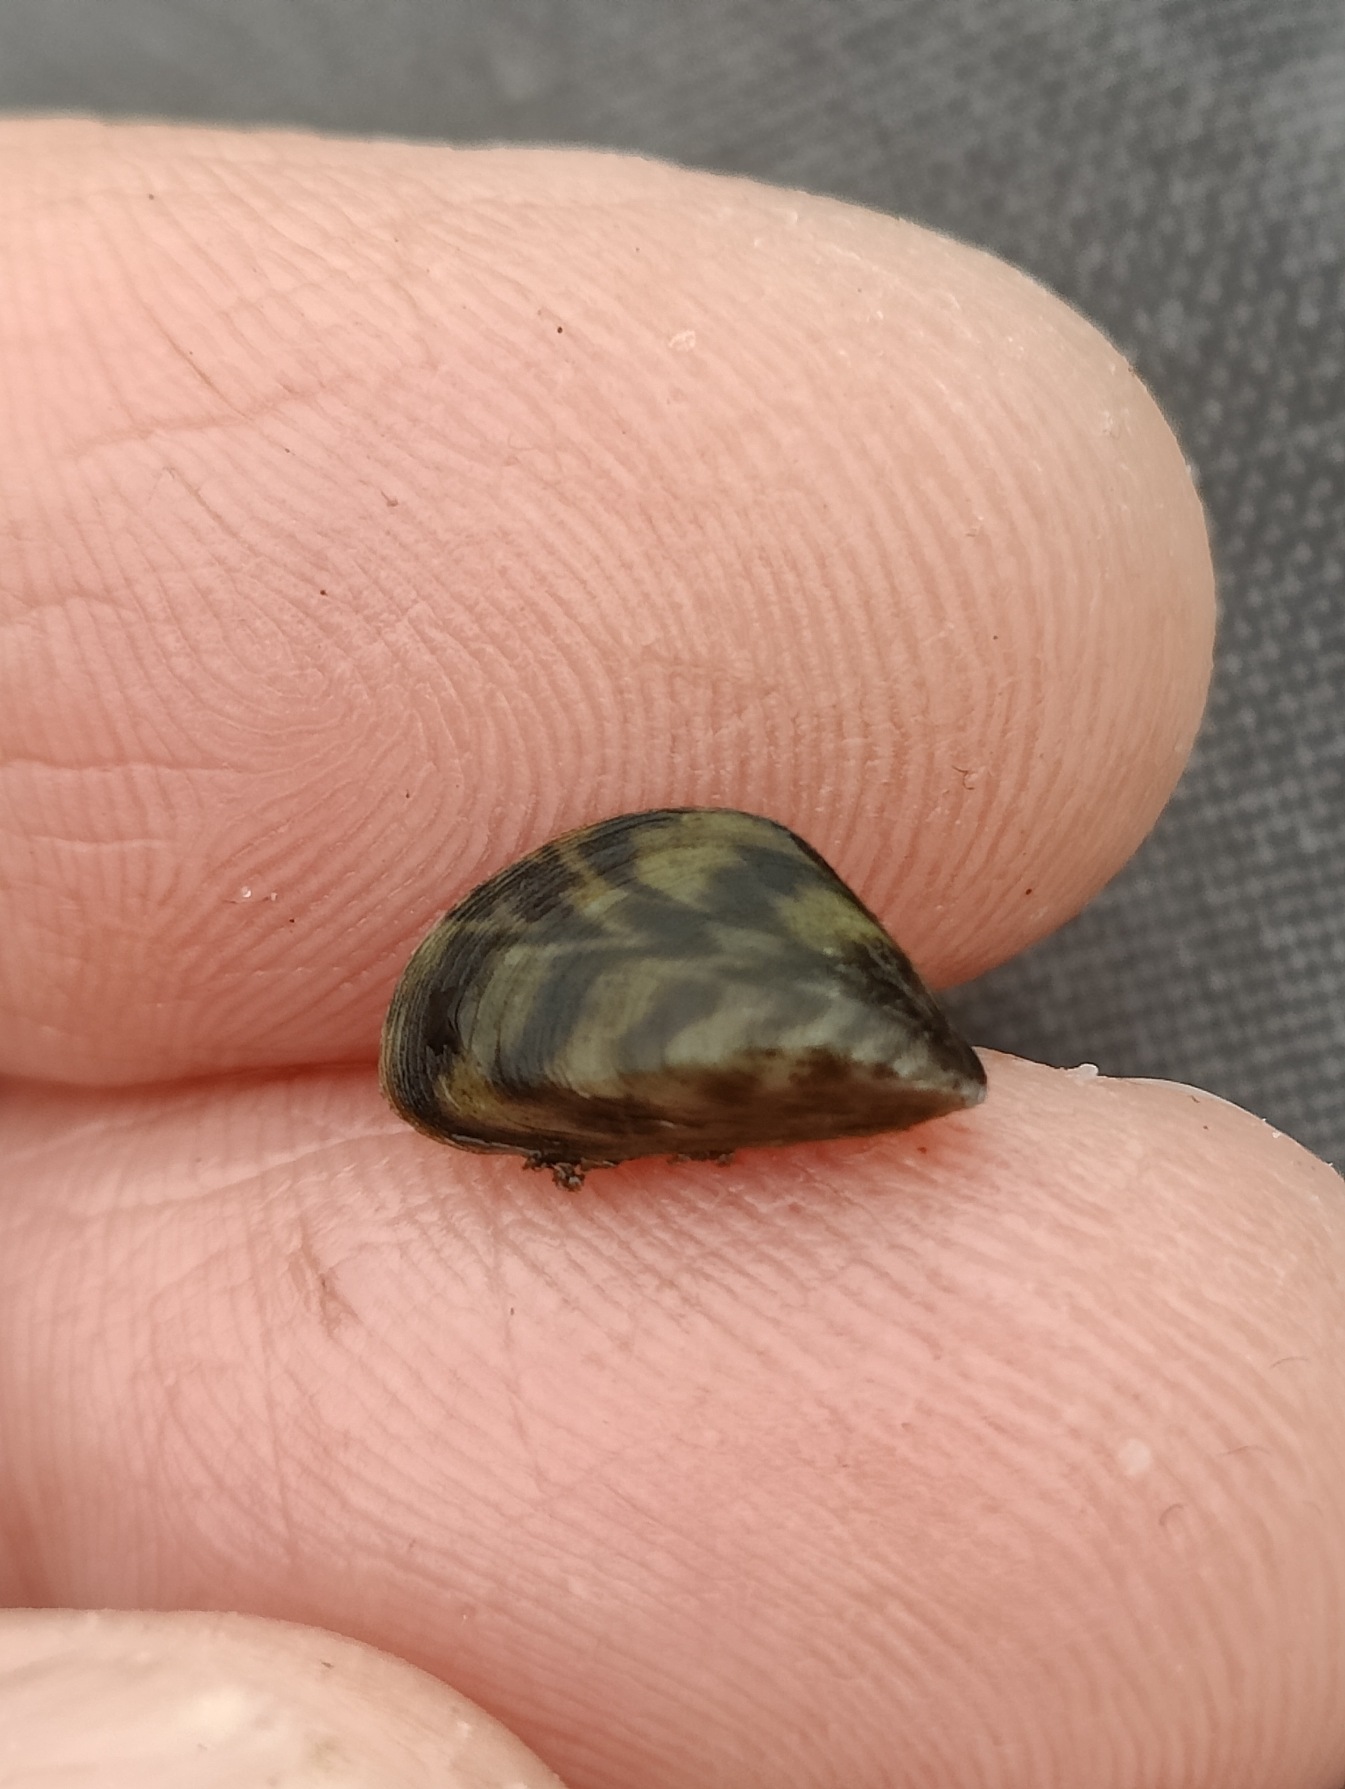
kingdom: Animalia
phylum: Mollusca
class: Bivalvia
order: Myida
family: Dreissenidae
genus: Dreissena
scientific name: Dreissena polymorpha
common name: Vandremusling
